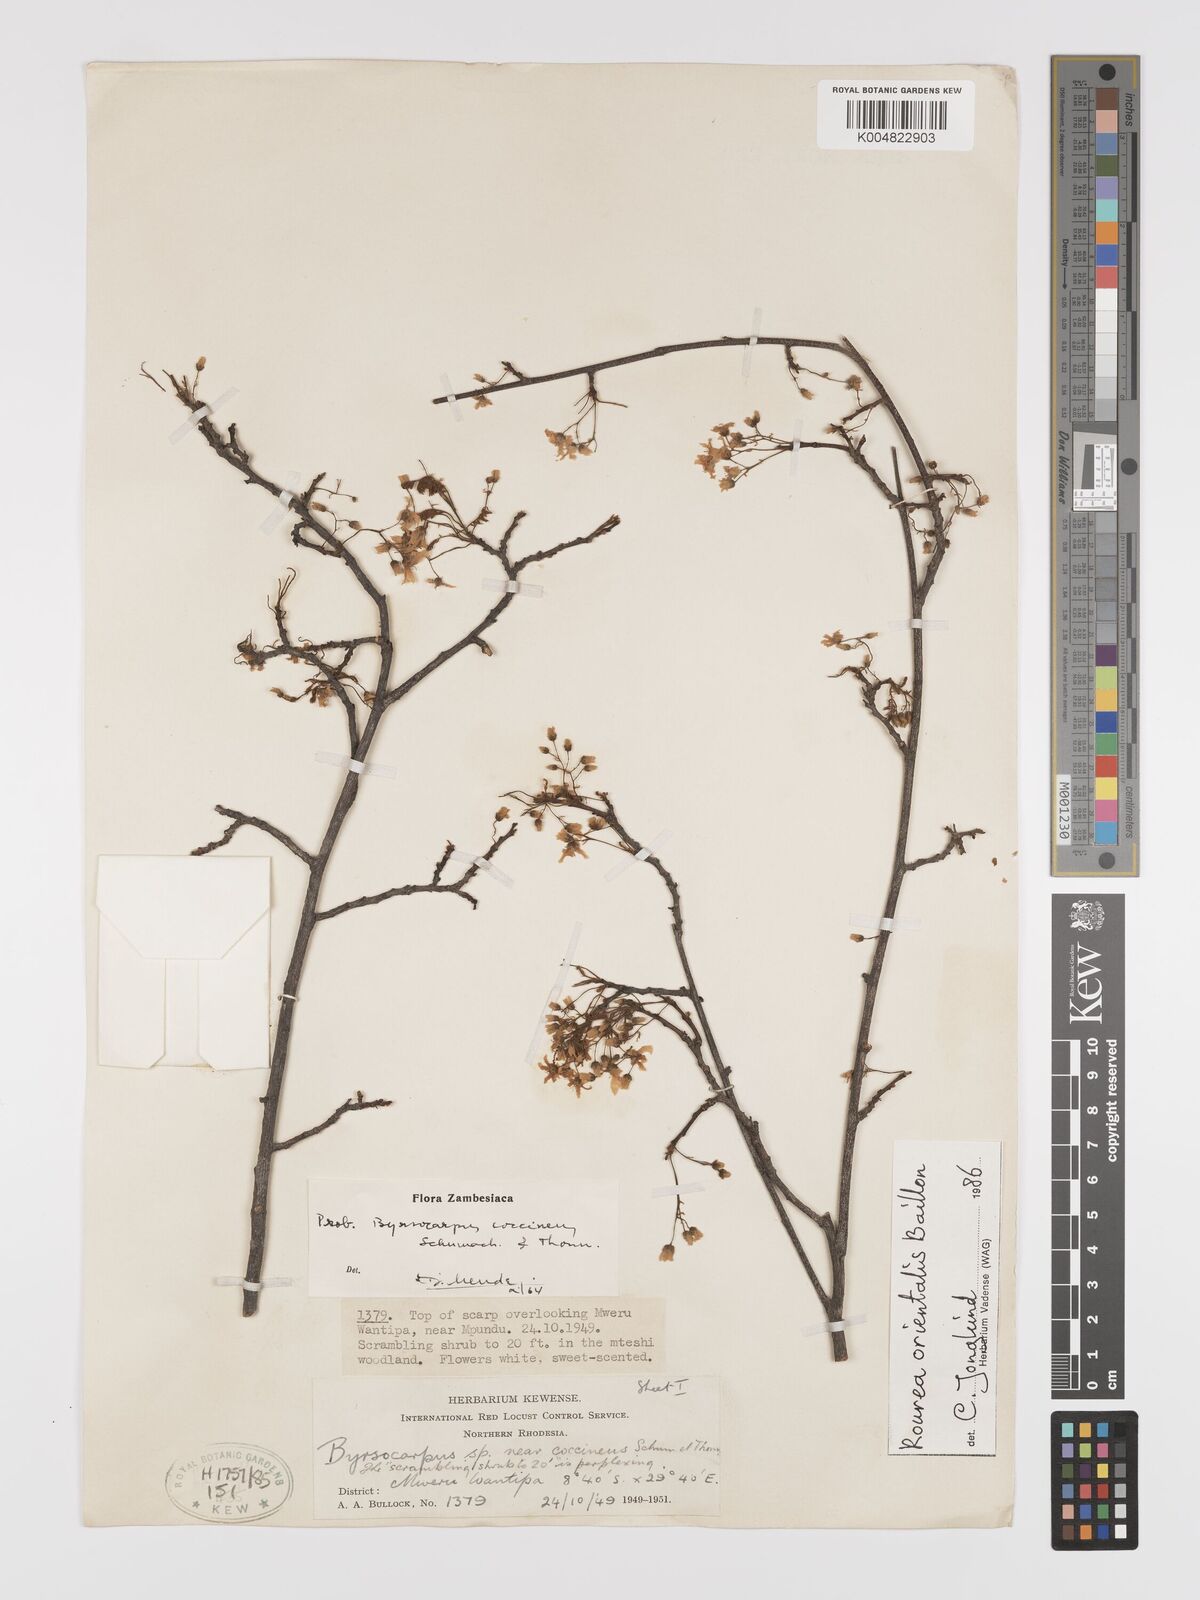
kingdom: Plantae
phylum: Tracheophyta
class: Magnoliopsida
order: Oxalidales
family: Connaraceae
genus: Rourea
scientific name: Rourea orientalis
